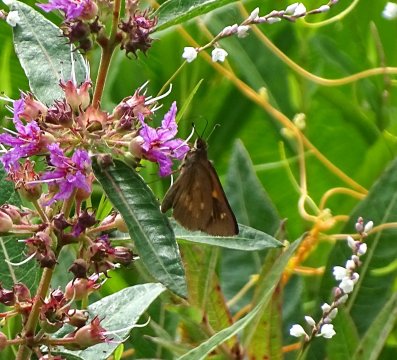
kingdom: Animalia
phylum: Arthropoda
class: Insecta
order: Lepidoptera
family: Hesperiidae
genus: Poanes
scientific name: Poanes viator
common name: Broad-winged Skipper
